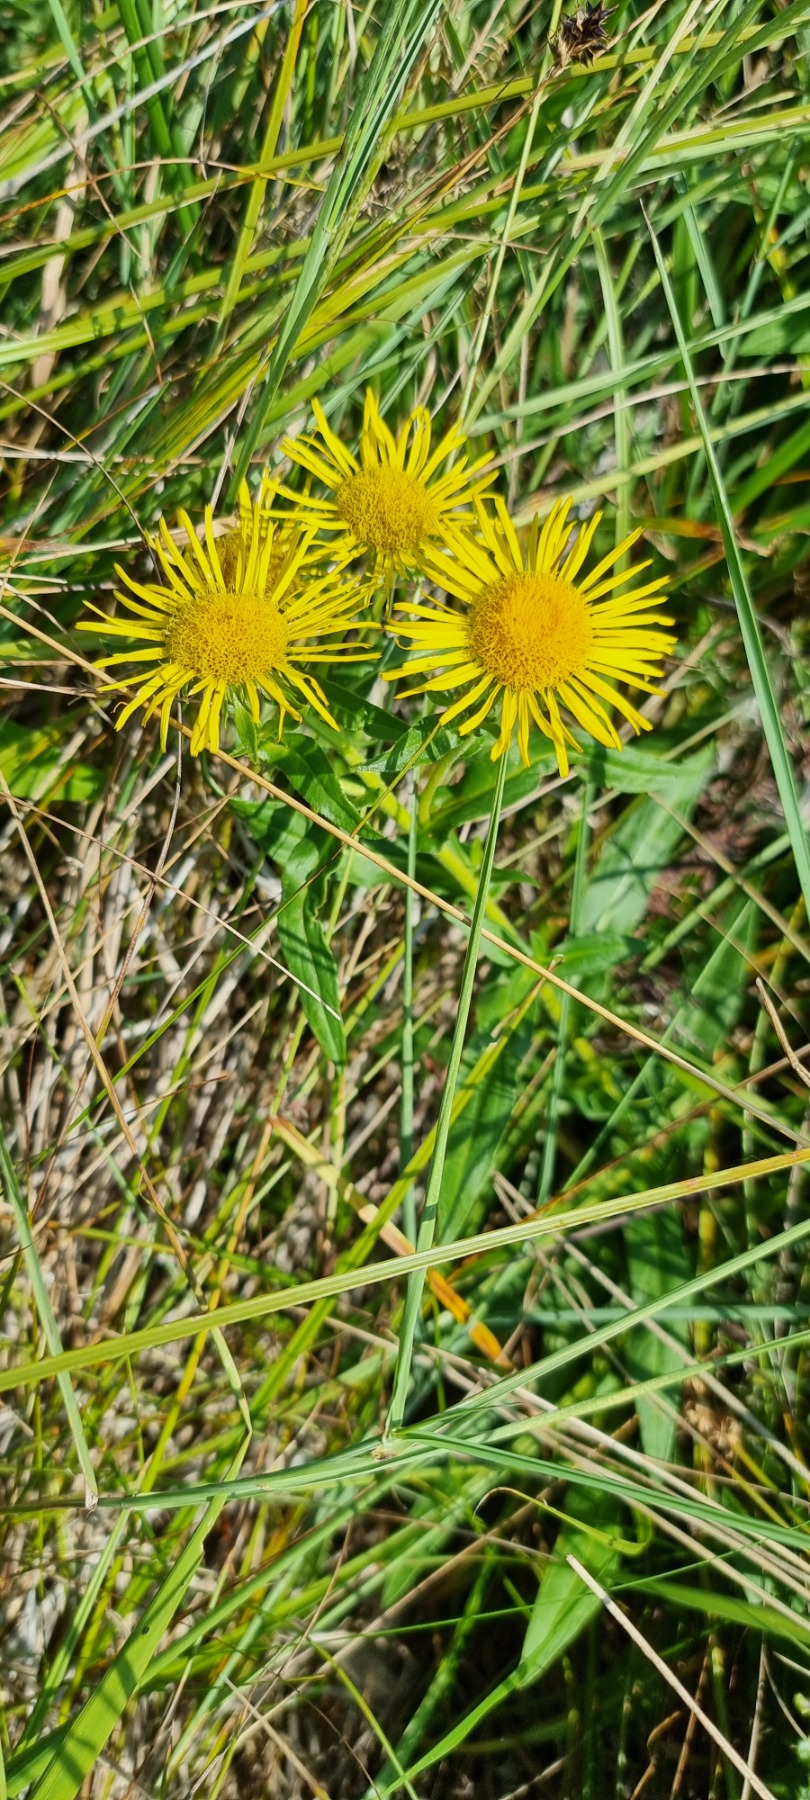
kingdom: Plantae
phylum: Tracheophyta
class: Magnoliopsida
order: Asterales
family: Asteraceae
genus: Pentanema
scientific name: Pentanema salicinum
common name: Pile-alant
